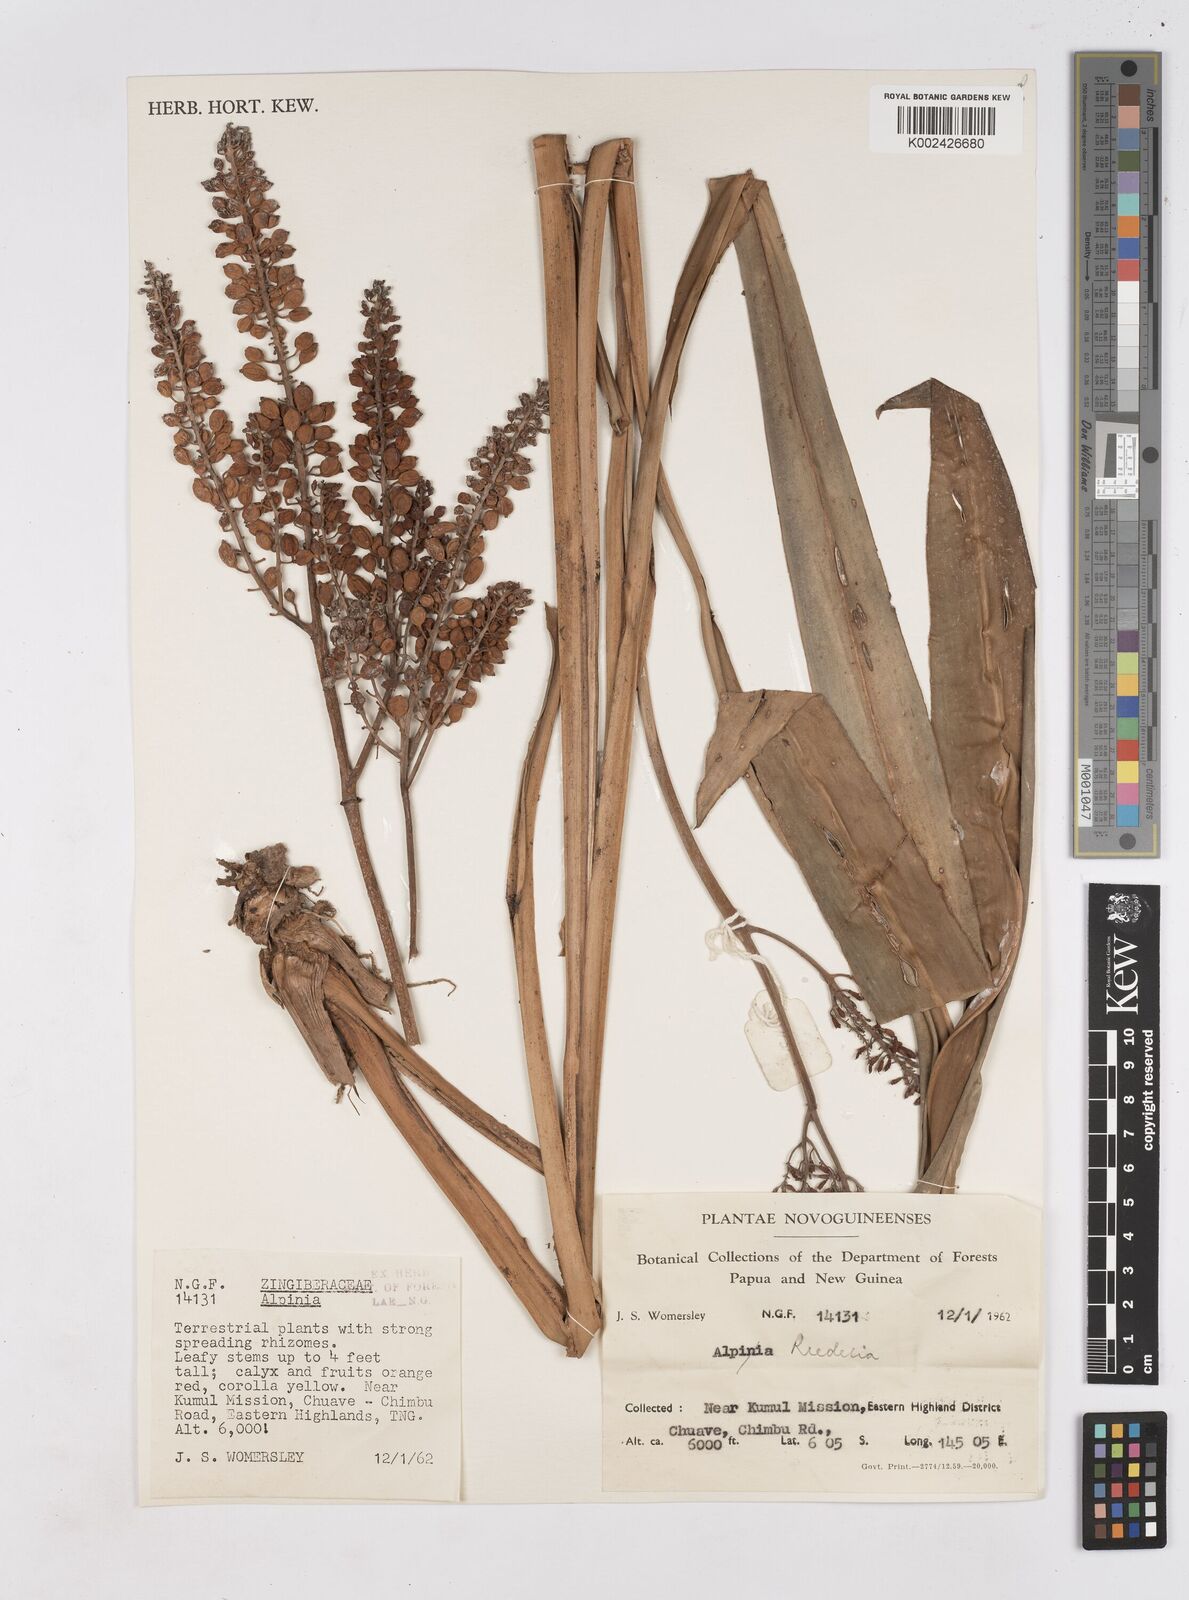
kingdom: Plantae
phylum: Tracheophyta
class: Liliopsida
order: Zingiberales
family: Zingiberaceae
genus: Riedelia
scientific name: Riedelia
